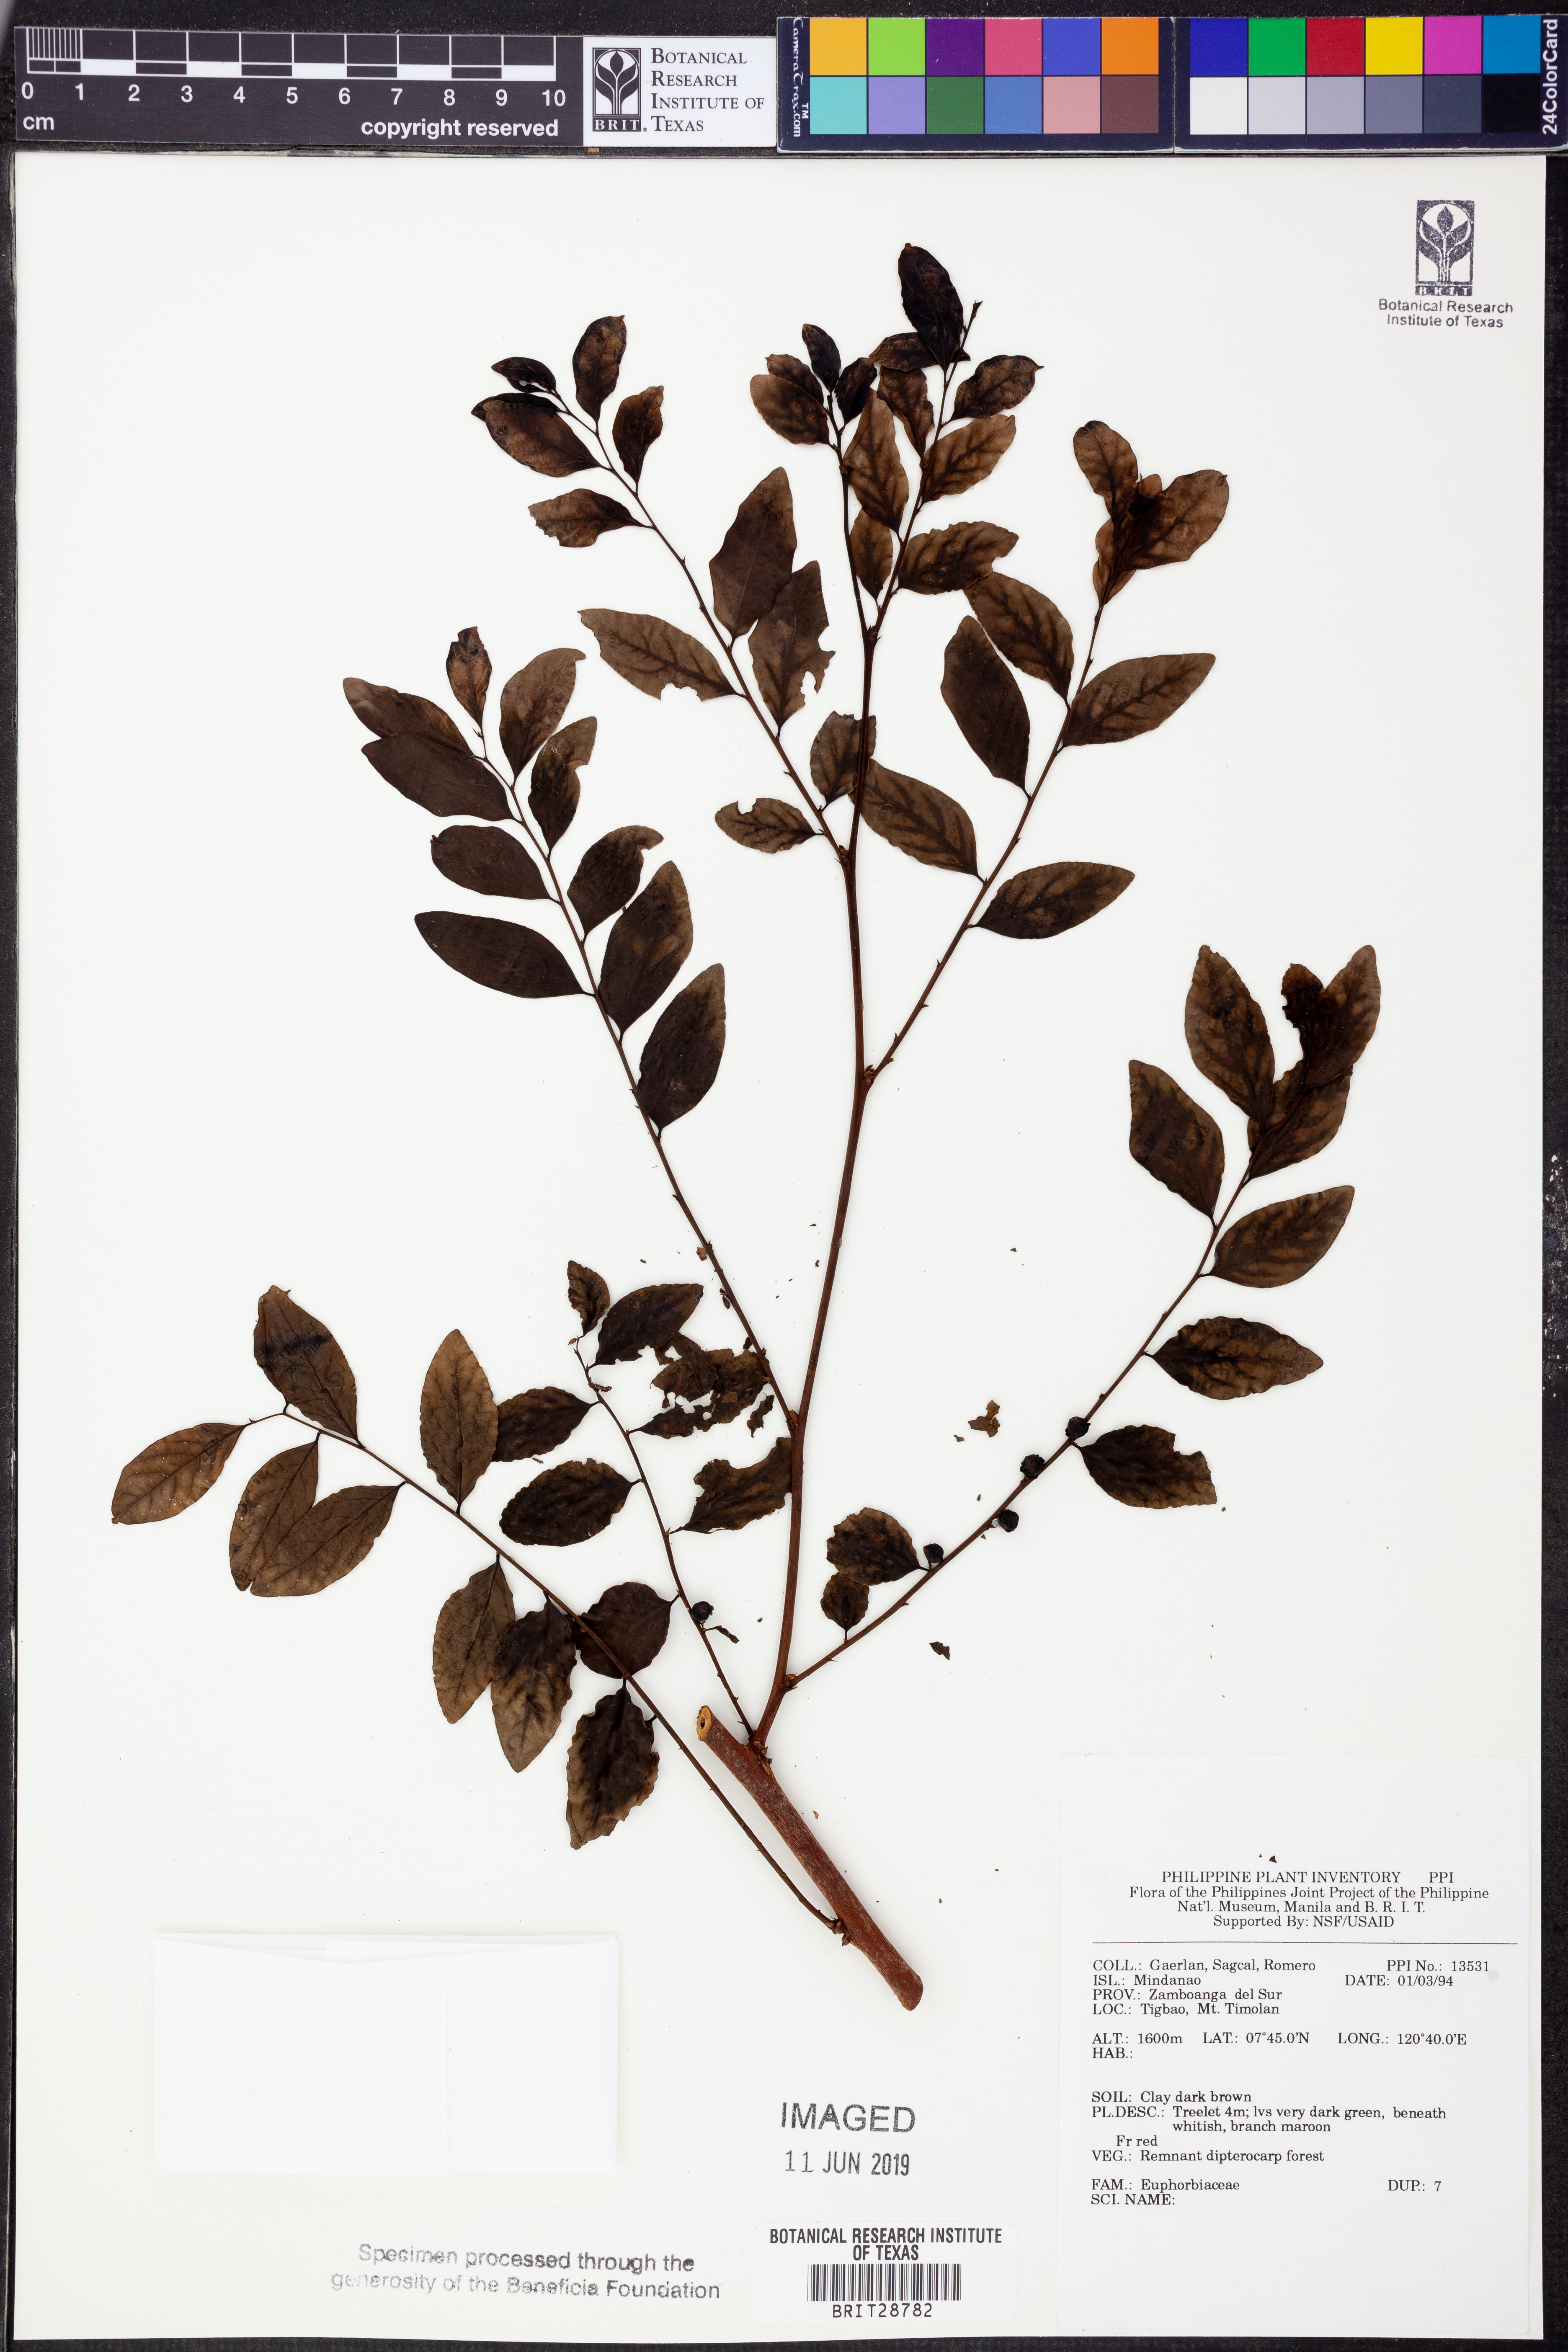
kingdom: Plantae
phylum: Tracheophyta
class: Magnoliopsida
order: Malpighiales
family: Euphorbiaceae
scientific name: Euphorbiaceae
